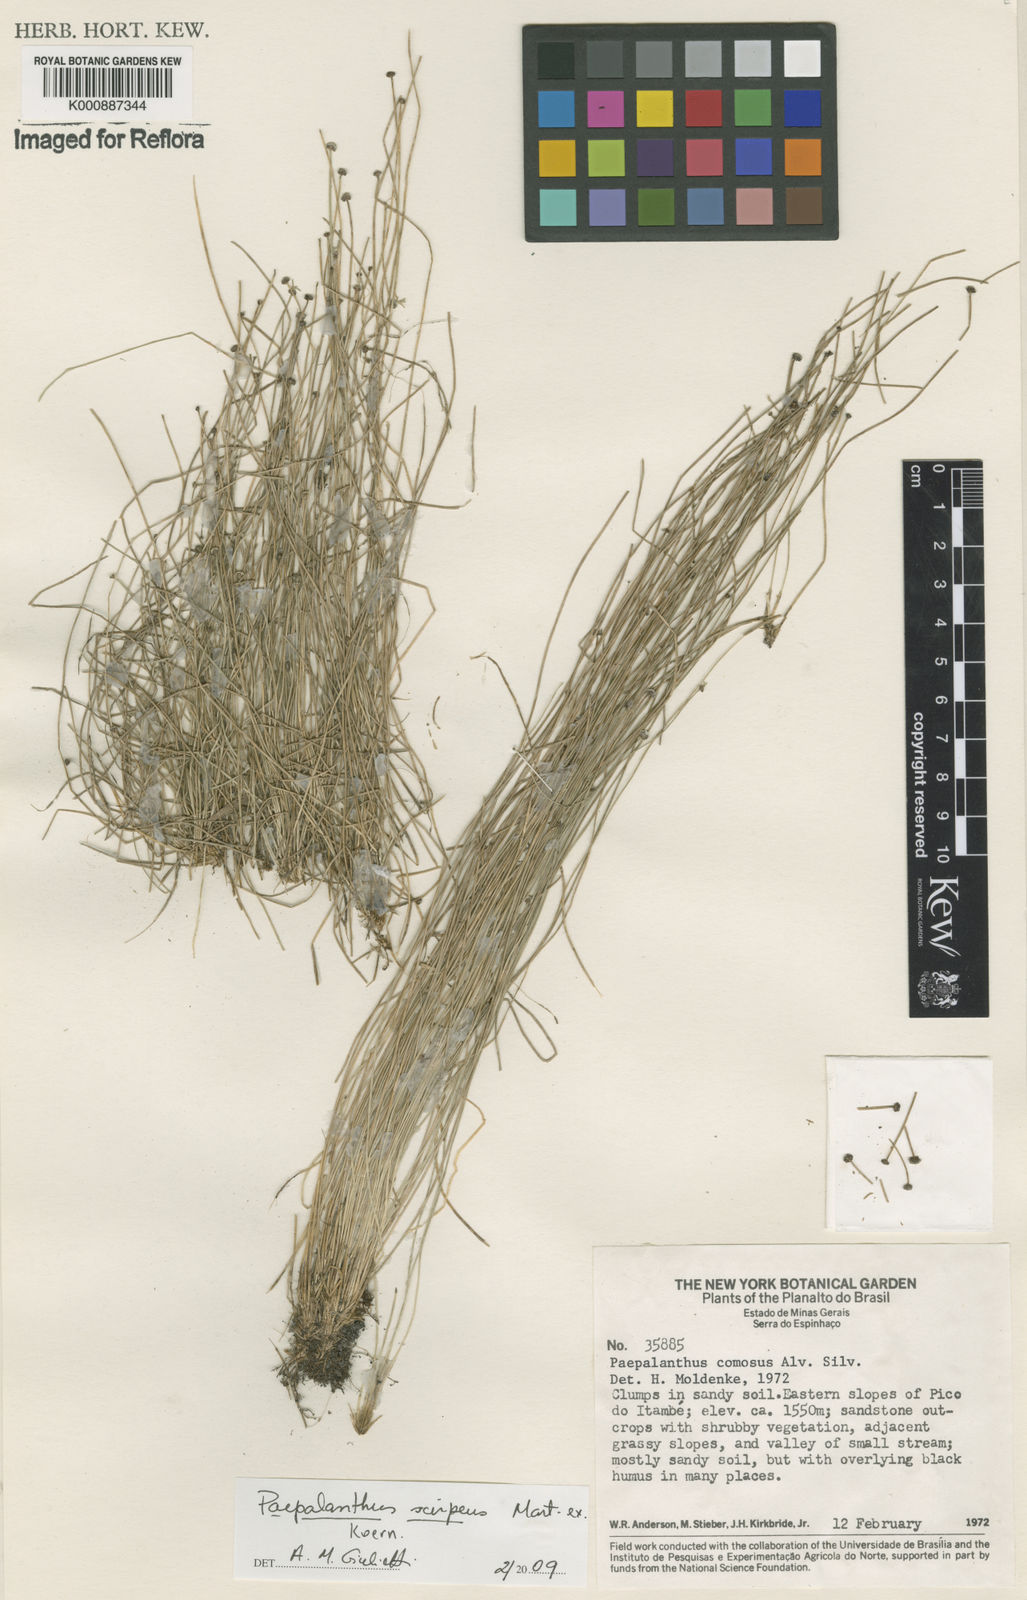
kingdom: Plantae
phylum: Tracheophyta
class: Liliopsida
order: Poales
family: Eriocaulaceae
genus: Paepalanthus
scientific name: Paepalanthus scirpeus
